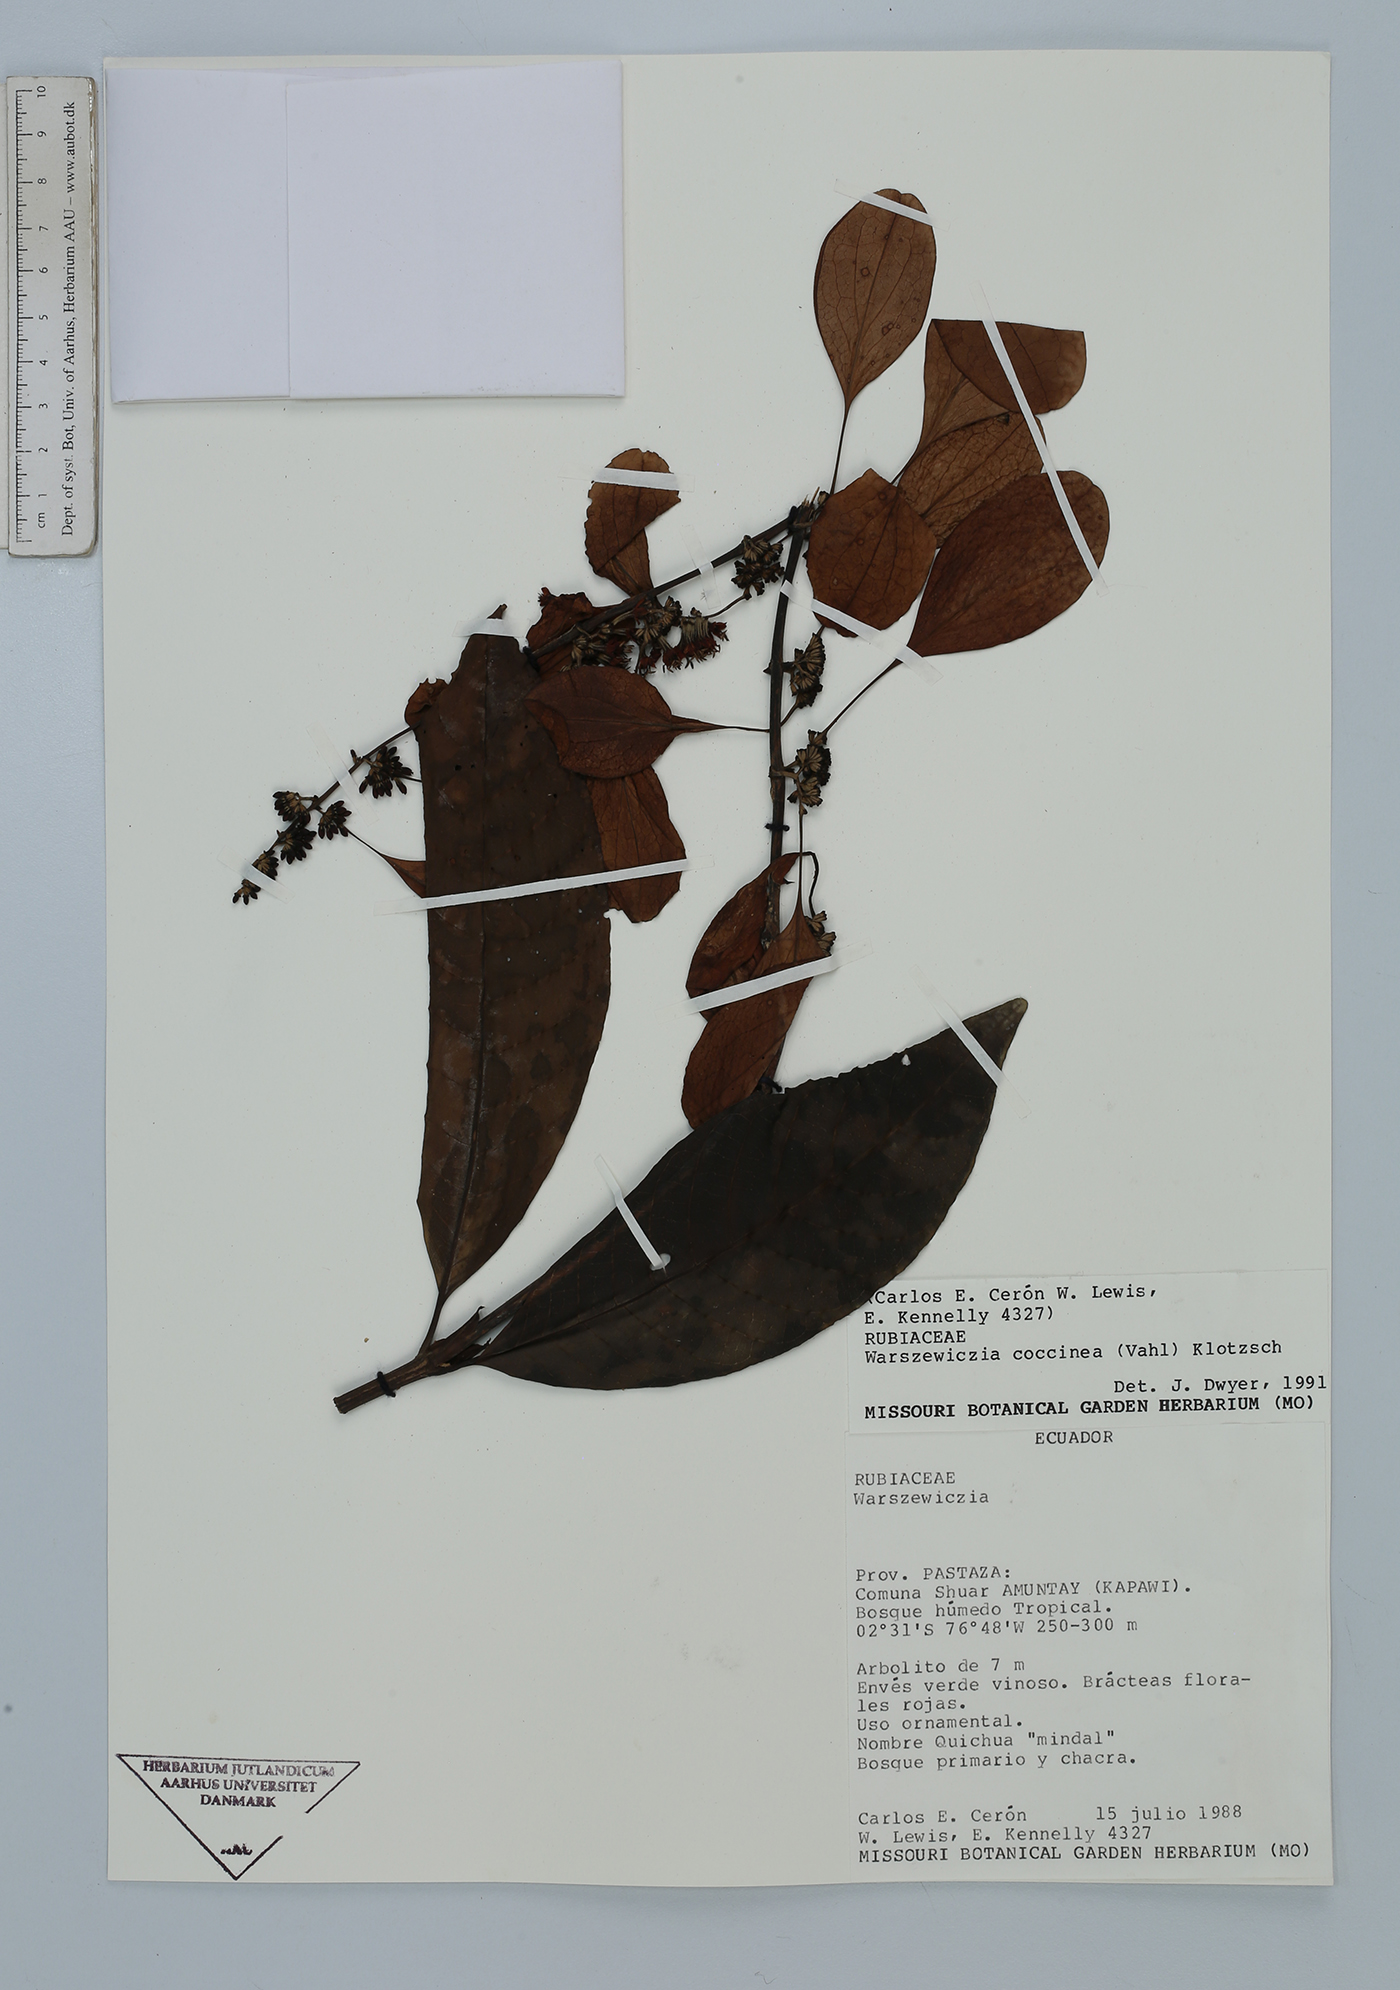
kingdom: Plantae
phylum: Tracheophyta
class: Magnoliopsida
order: Gentianales
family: Rubiaceae
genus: Warszewiczia
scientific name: Warszewiczia coccinea
